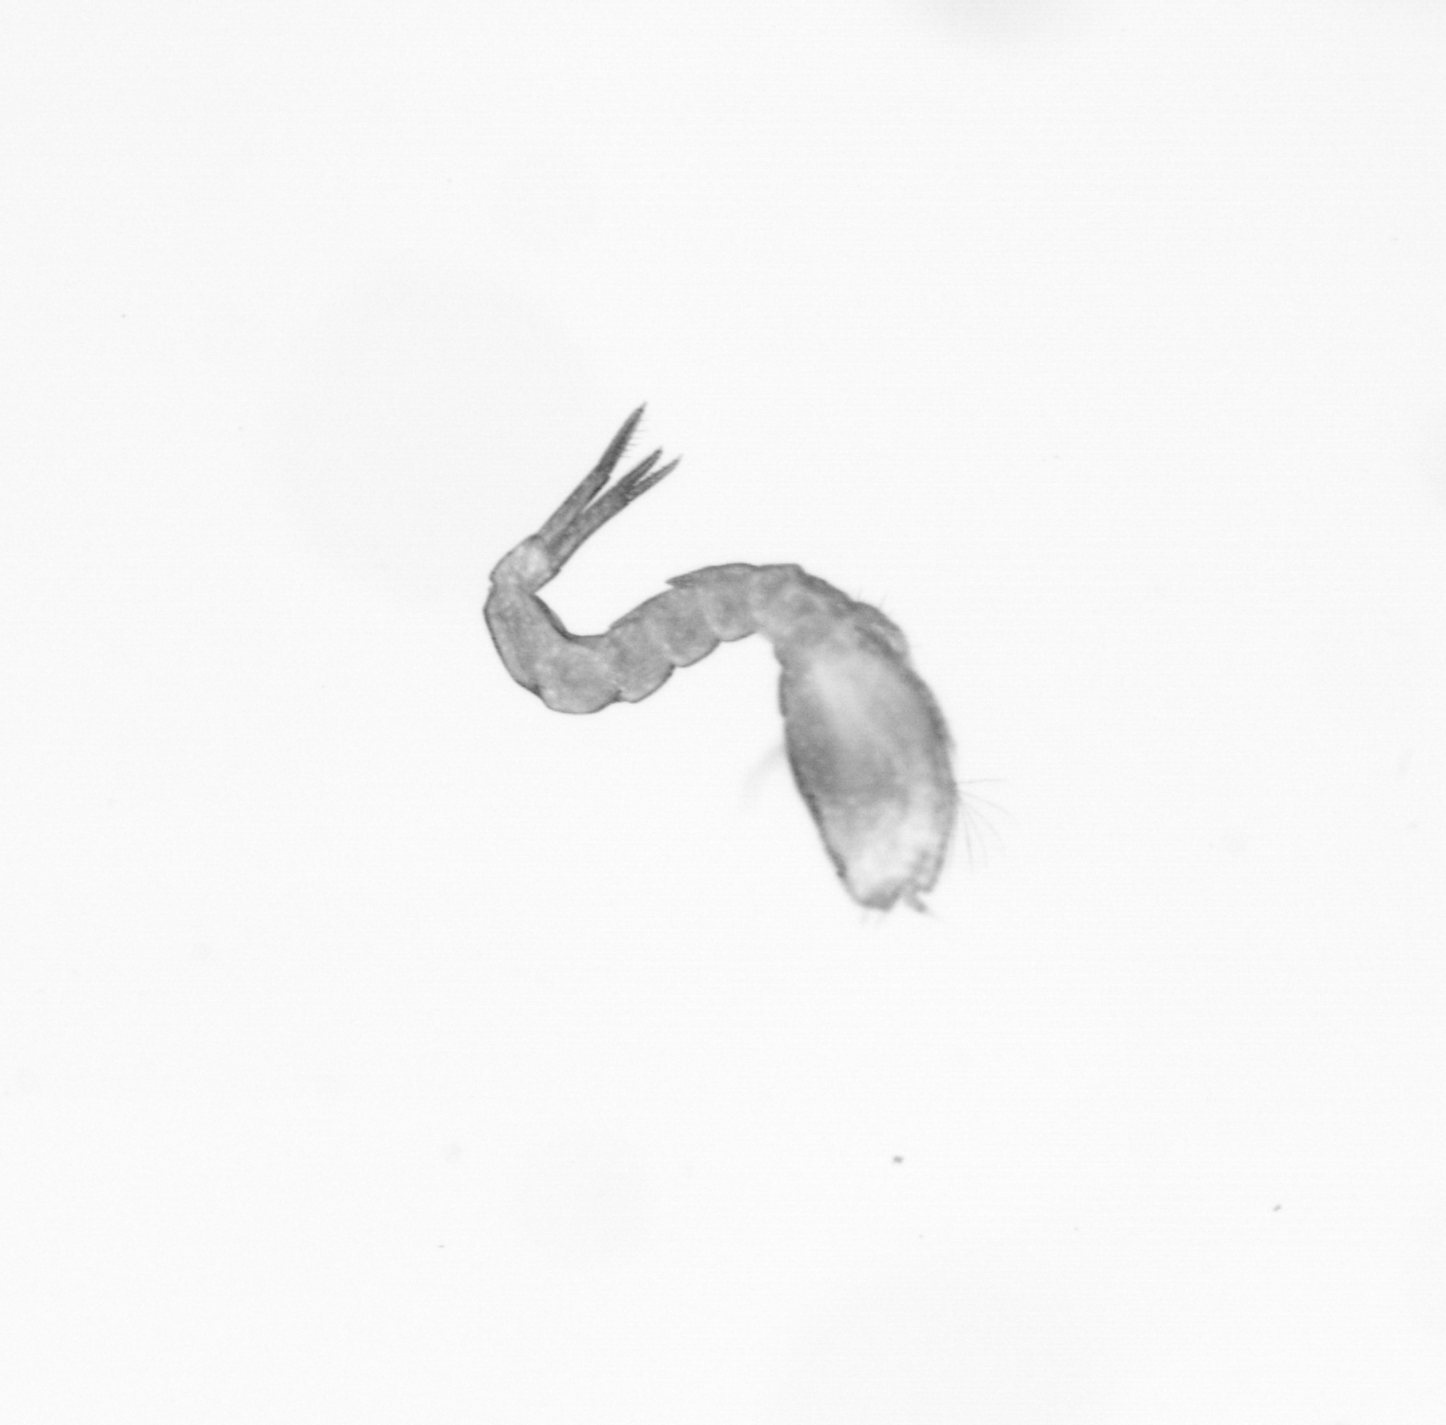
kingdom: Animalia
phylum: Annelida
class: Polychaeta
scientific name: Polychaeta
